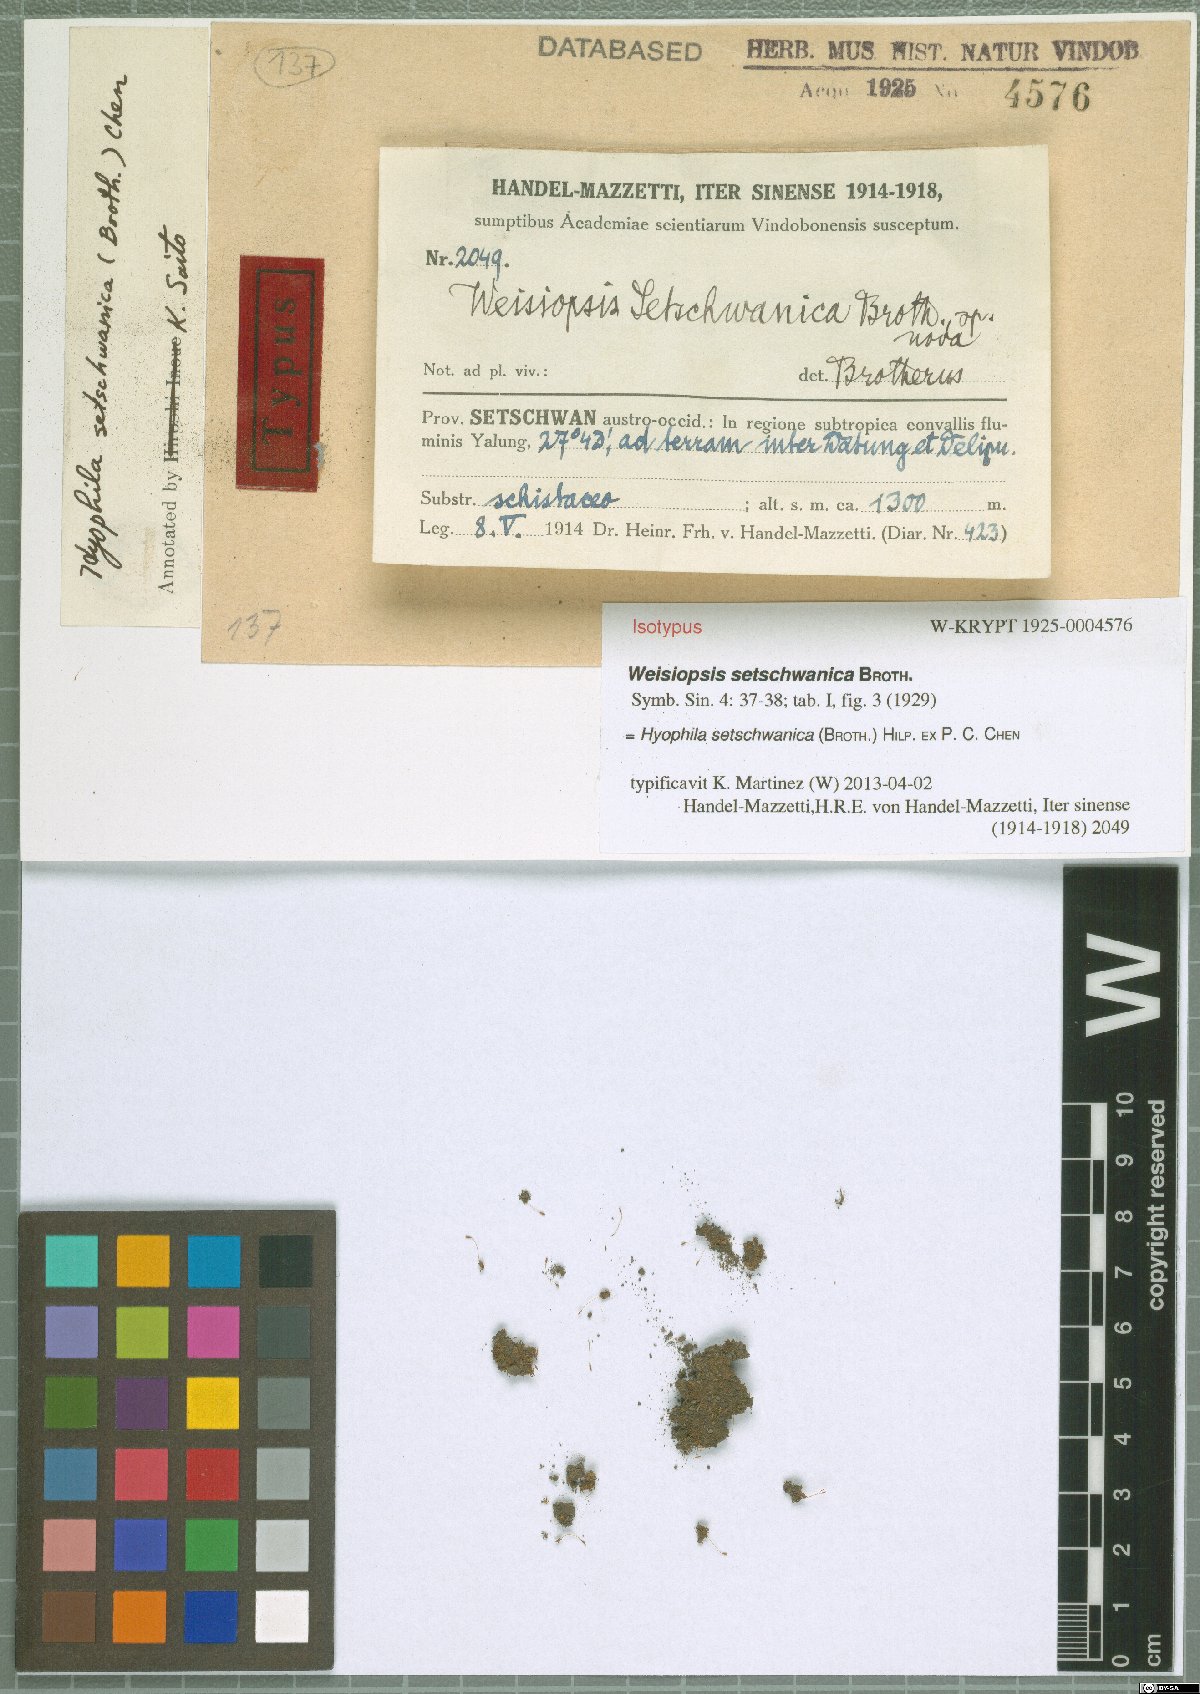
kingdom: Plantae
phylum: Bryophyta
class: Bryopsida
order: Pottiales
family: Pottiaceae
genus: Hyophila
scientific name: Hyophila setschwanica
